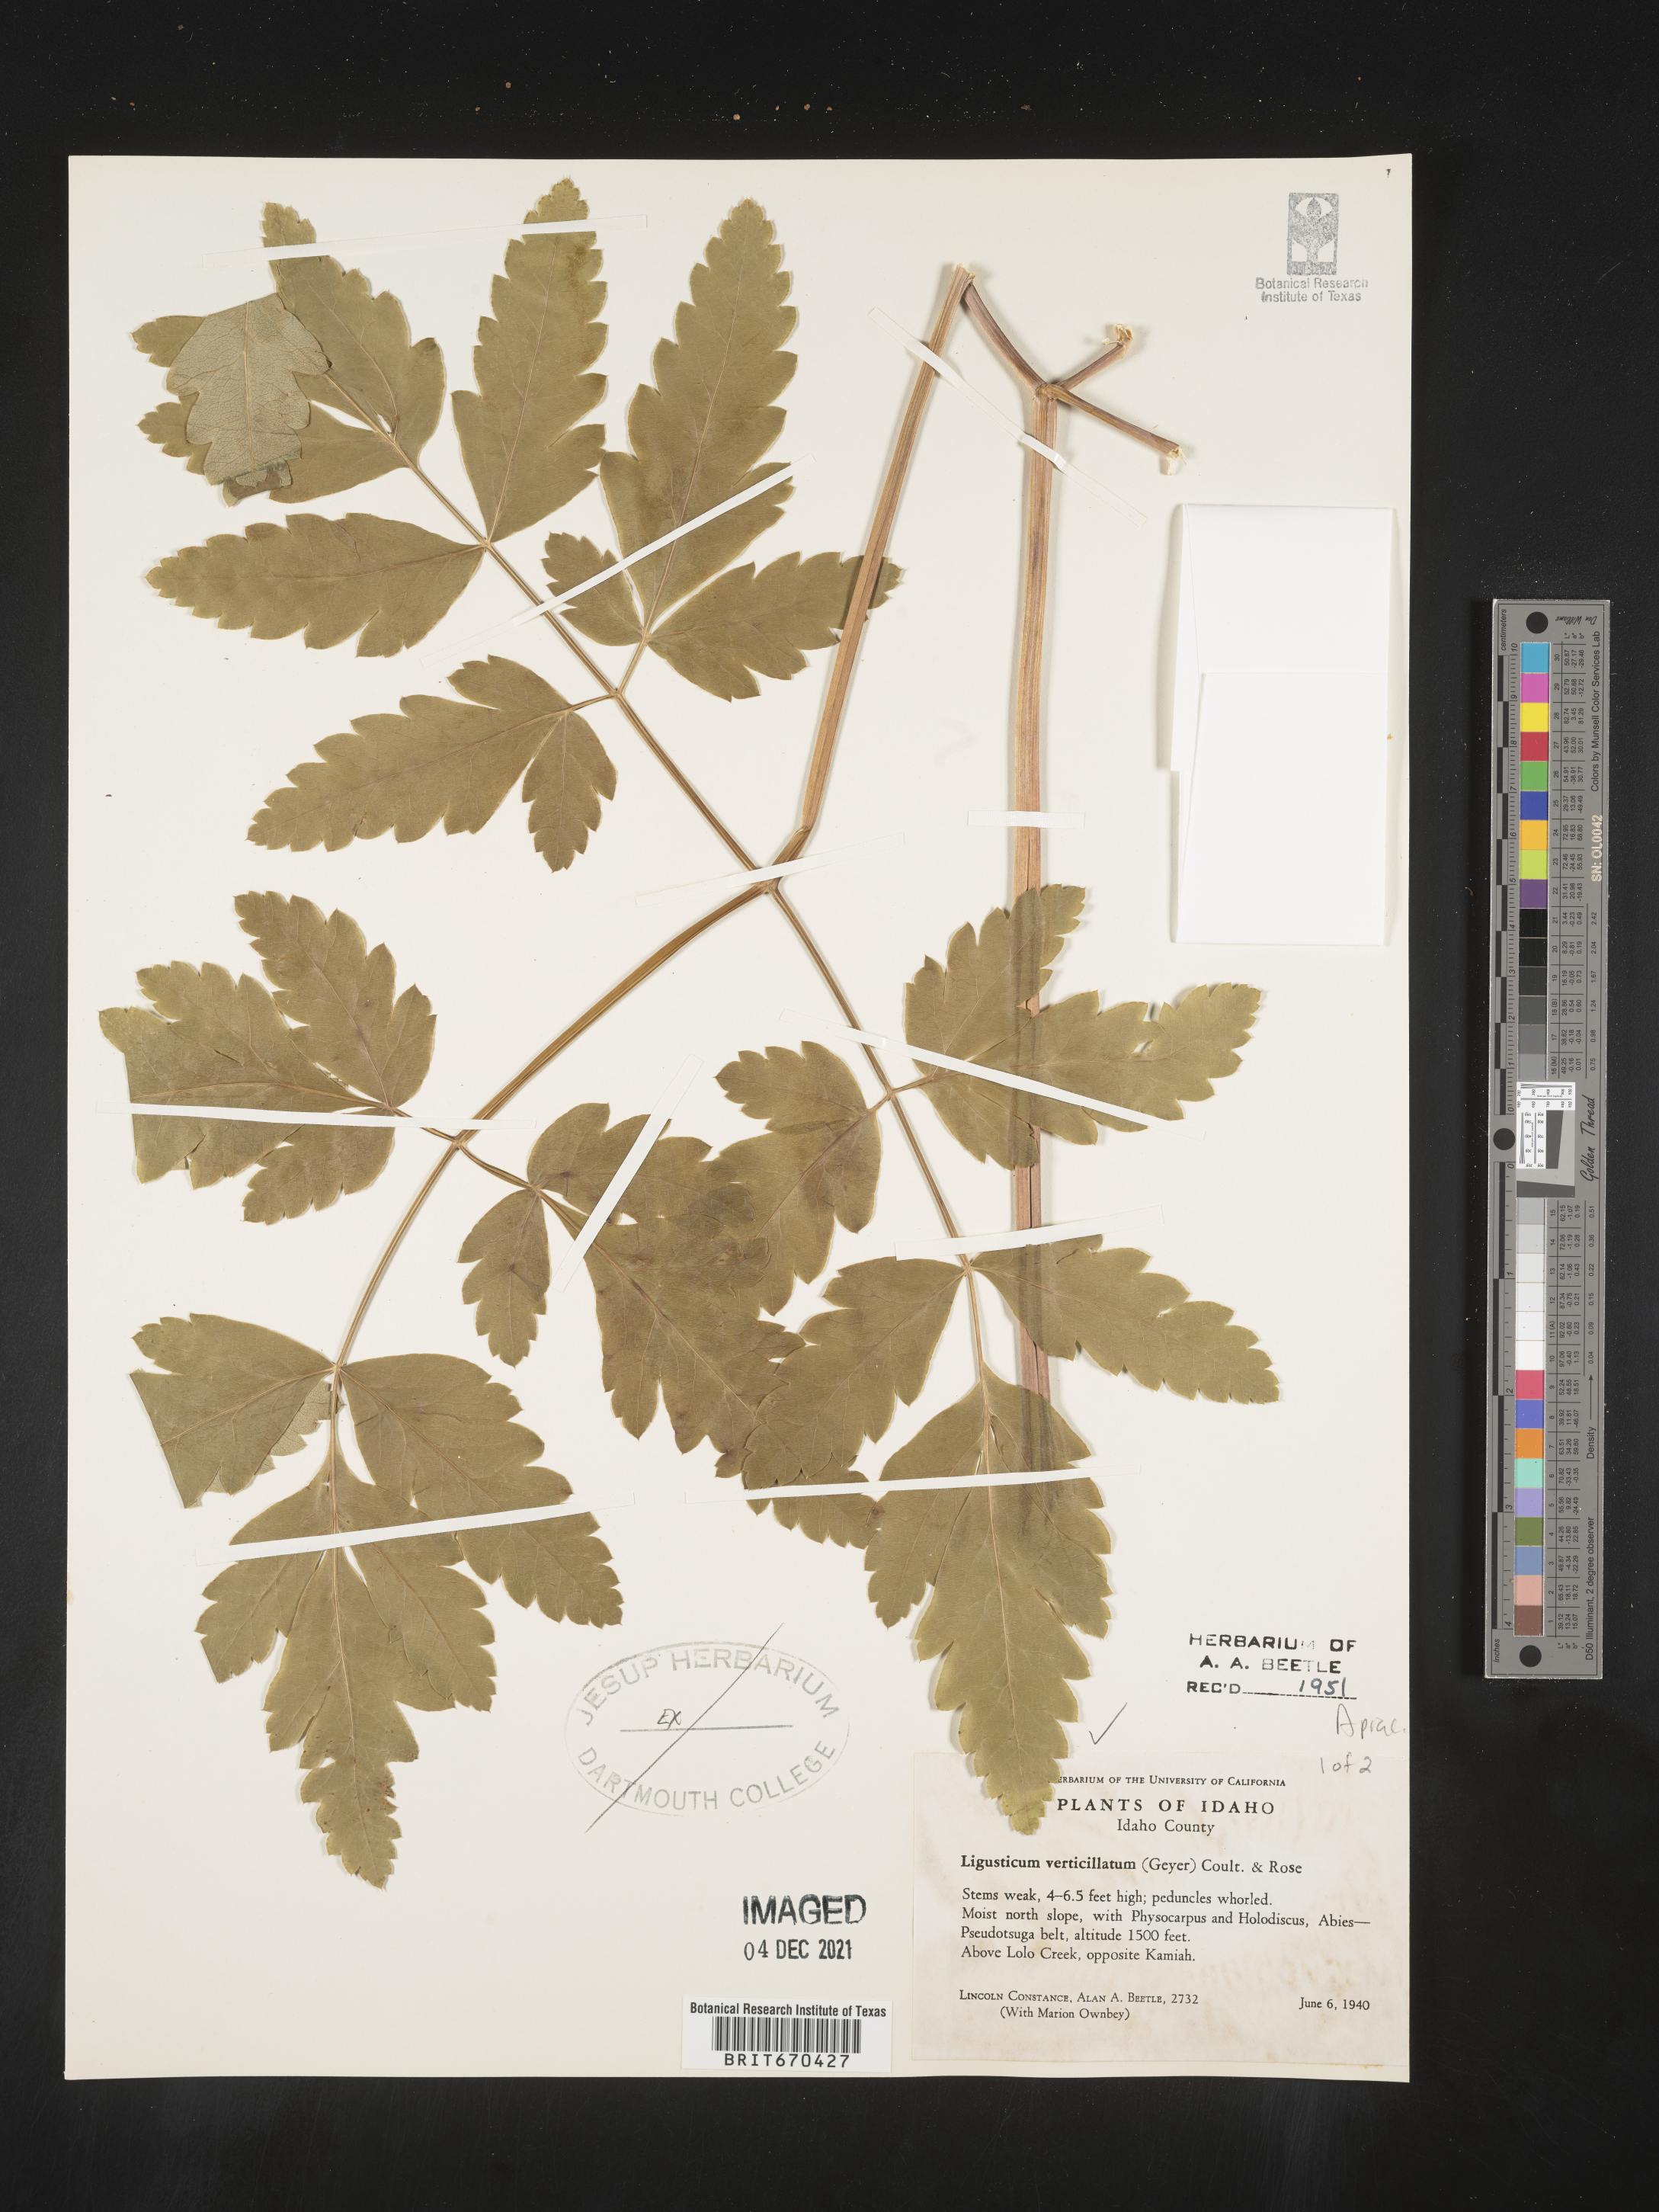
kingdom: Plantae
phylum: Tracheophyta
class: Magnoliopsida
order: Apiales
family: Apiaceae
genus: Ligusticum
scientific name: Ligusticum verticillatum
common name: Northern licorice-root
